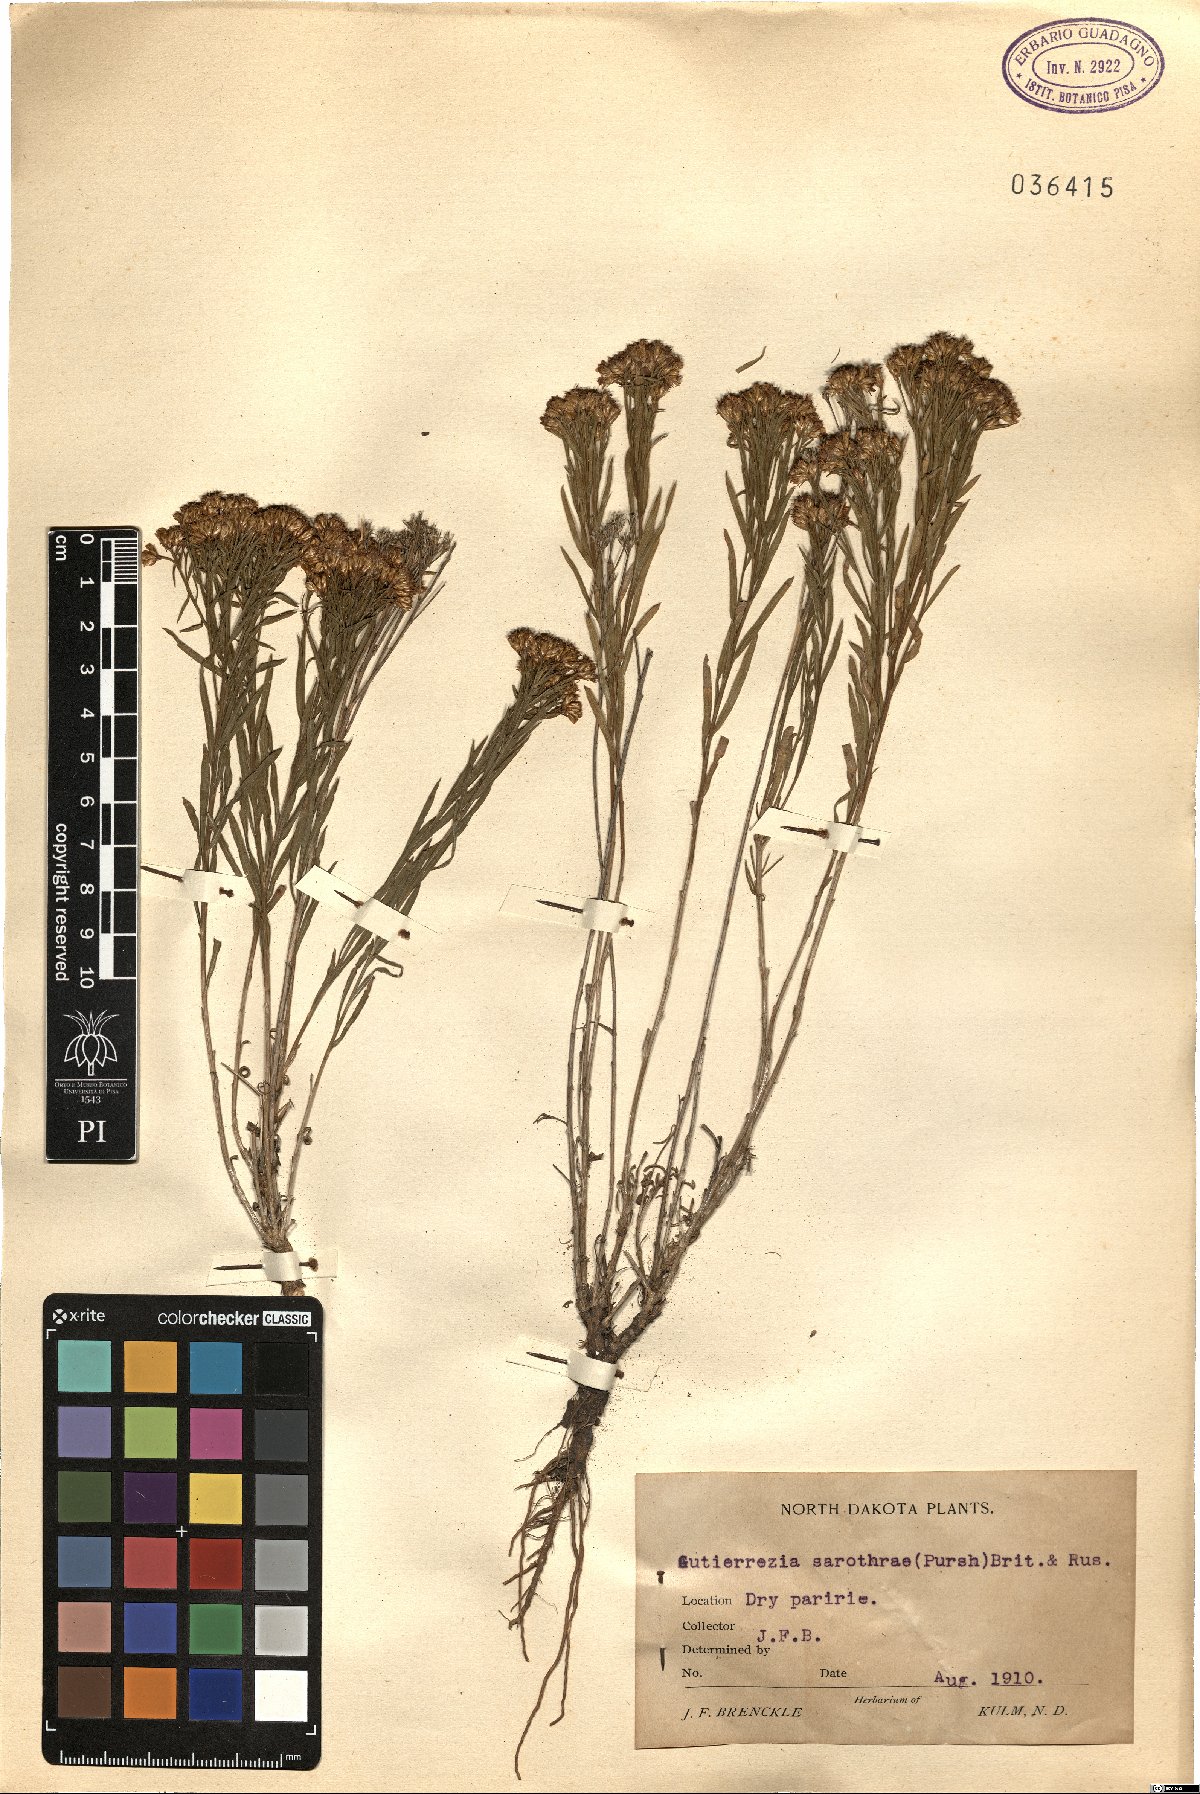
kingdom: Plantae
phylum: Tracheophyta
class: Magnoliopsida
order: Asterales
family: Asteraceae
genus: Gutierrezia
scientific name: Gutierrezia sarothrae
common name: Broom snakeweed
